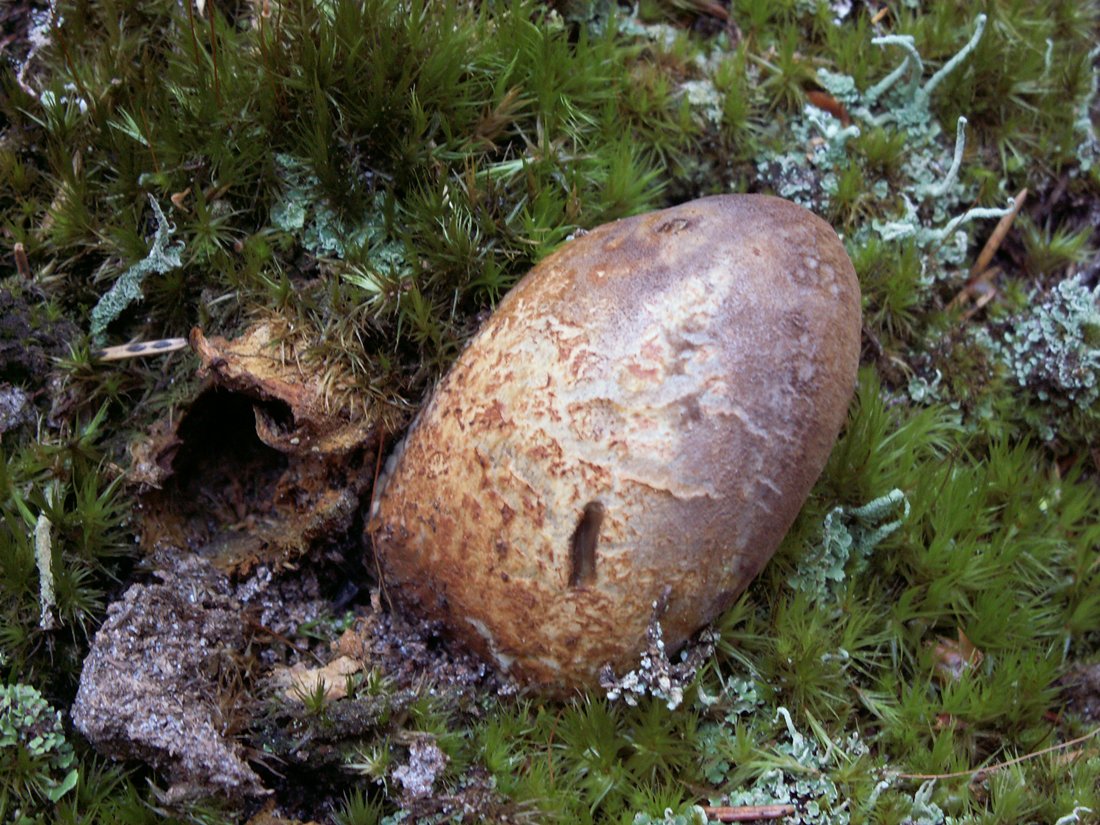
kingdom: Fungi
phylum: Basidiomycota
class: Agaricomycetes
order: Boletales
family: Tapinellaceae
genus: Tapinella
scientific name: Tapinella atrotomentosa
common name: sortfiltet viftesvamp
